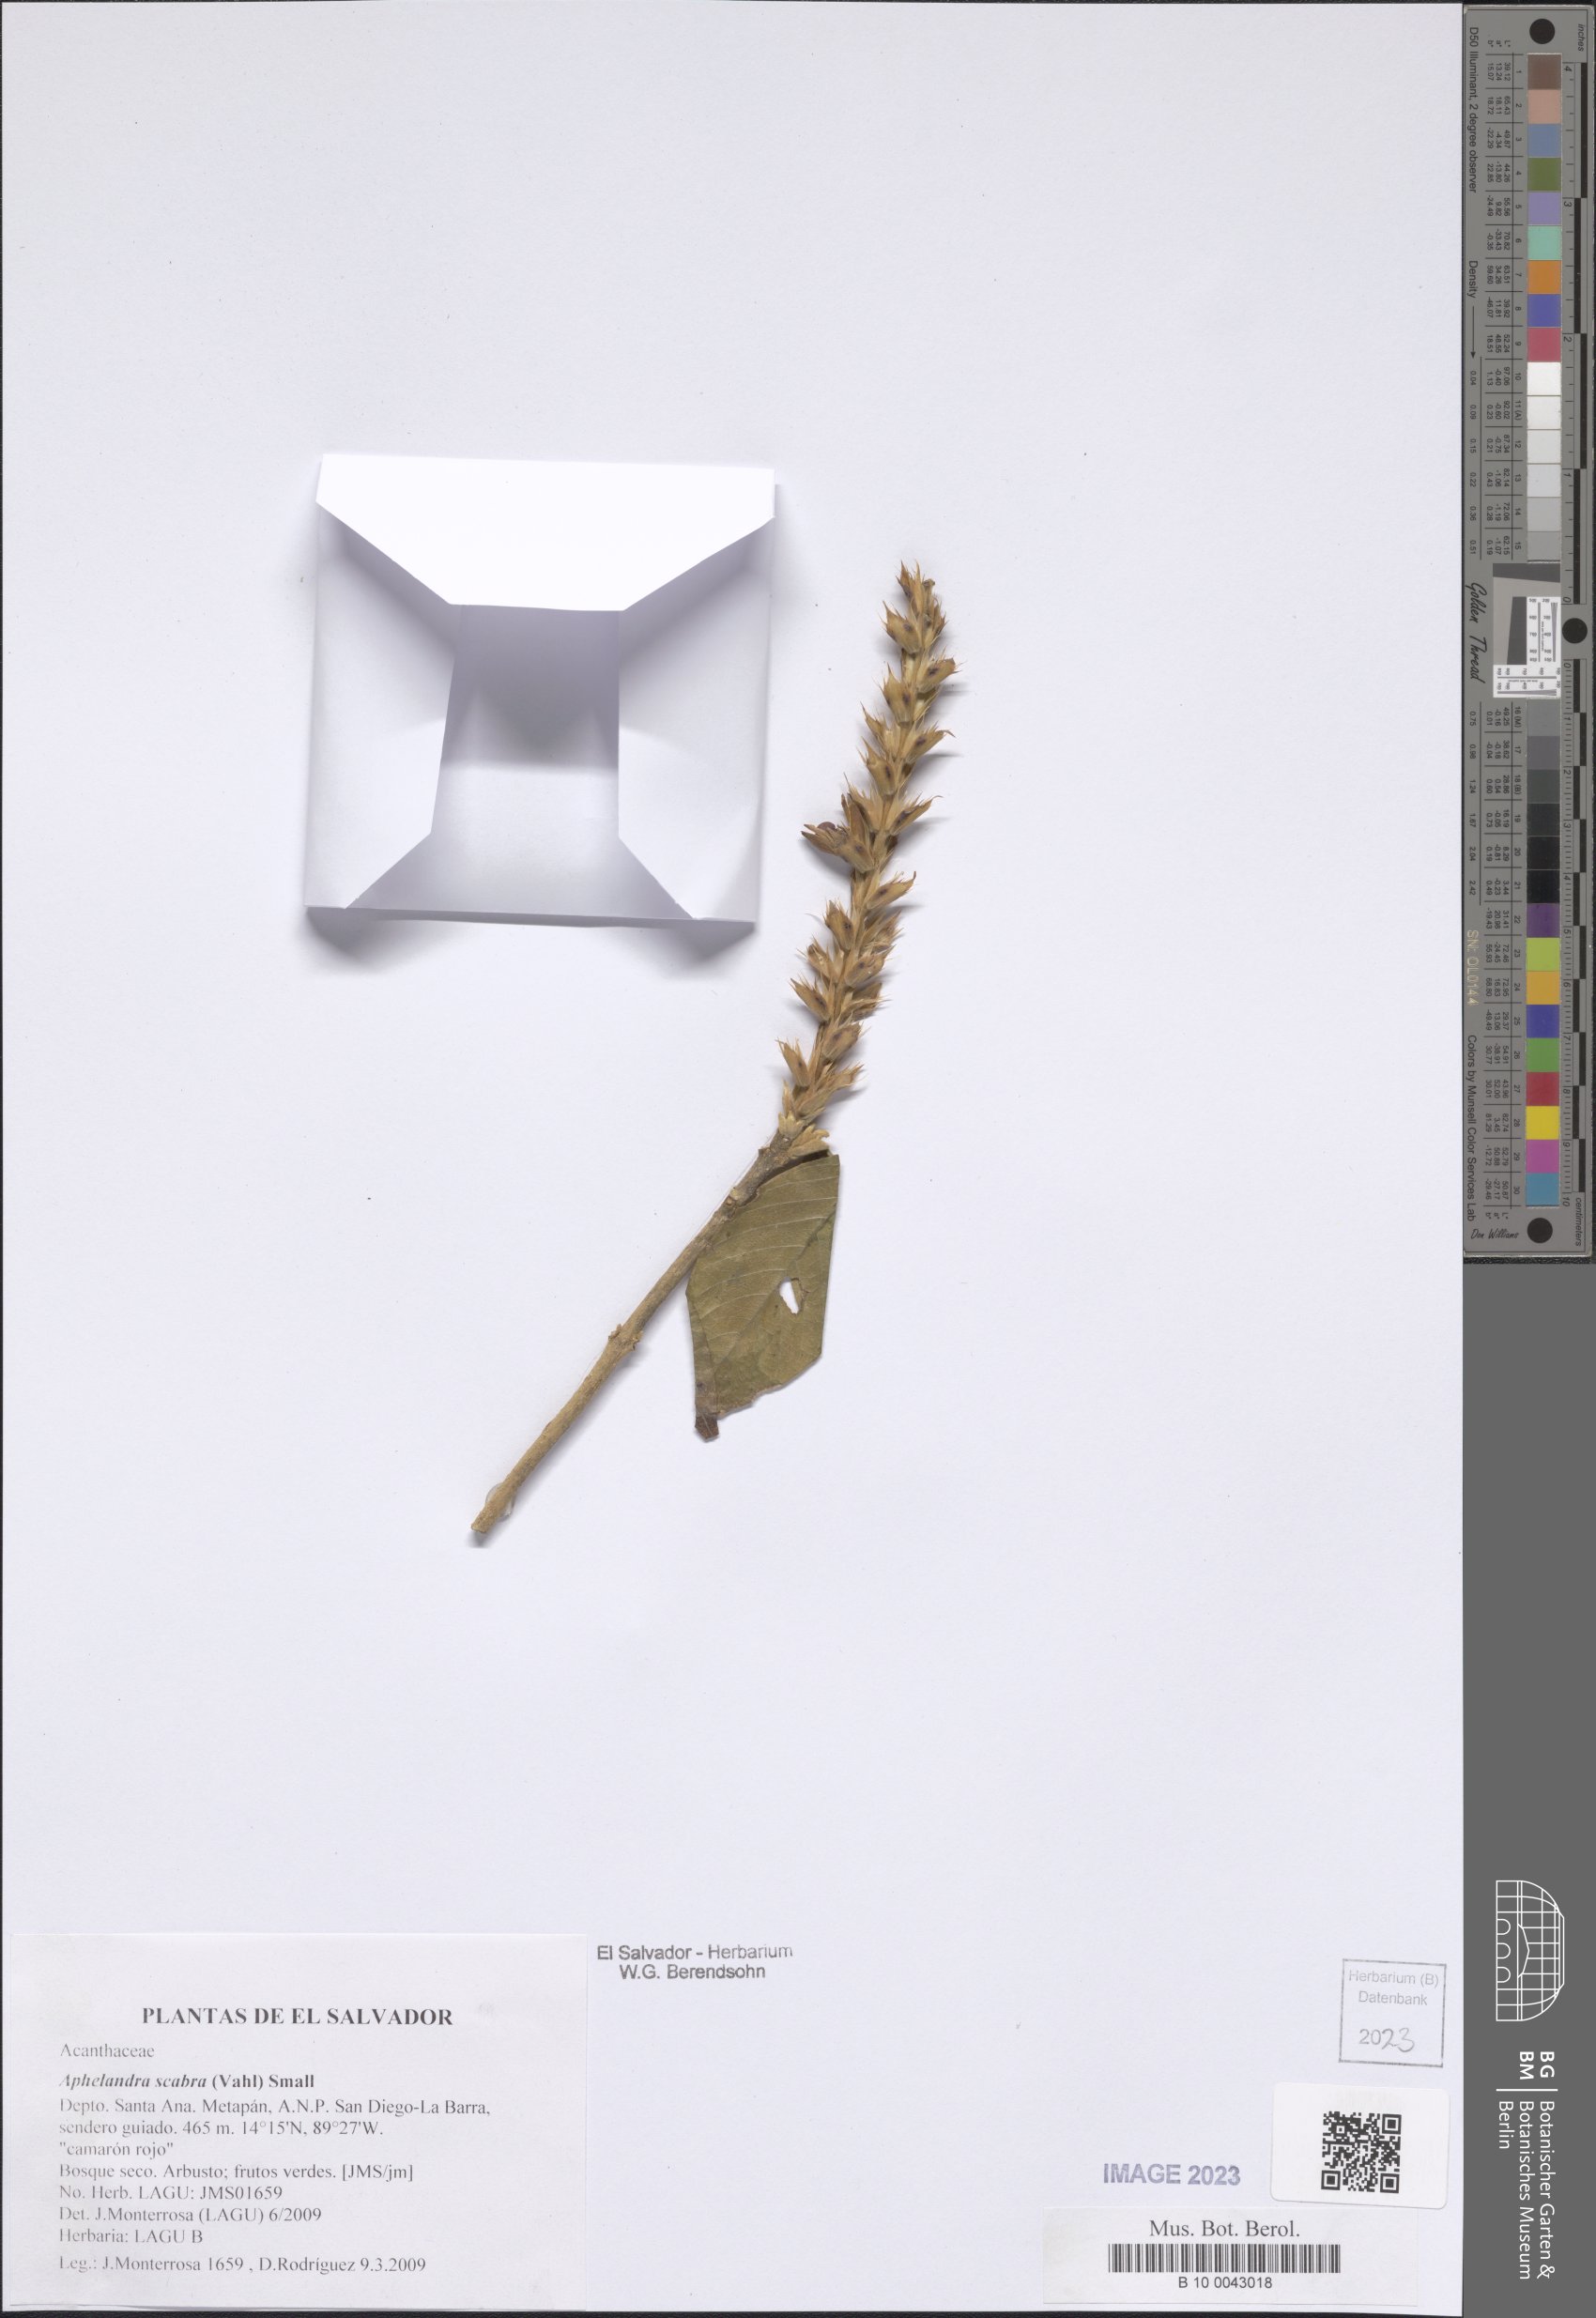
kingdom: Plantae
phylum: Tracheophyta
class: Magnoliopsida
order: Lamiales
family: Acanthaceae
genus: Aphelandra
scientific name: Aphelandra scabra
